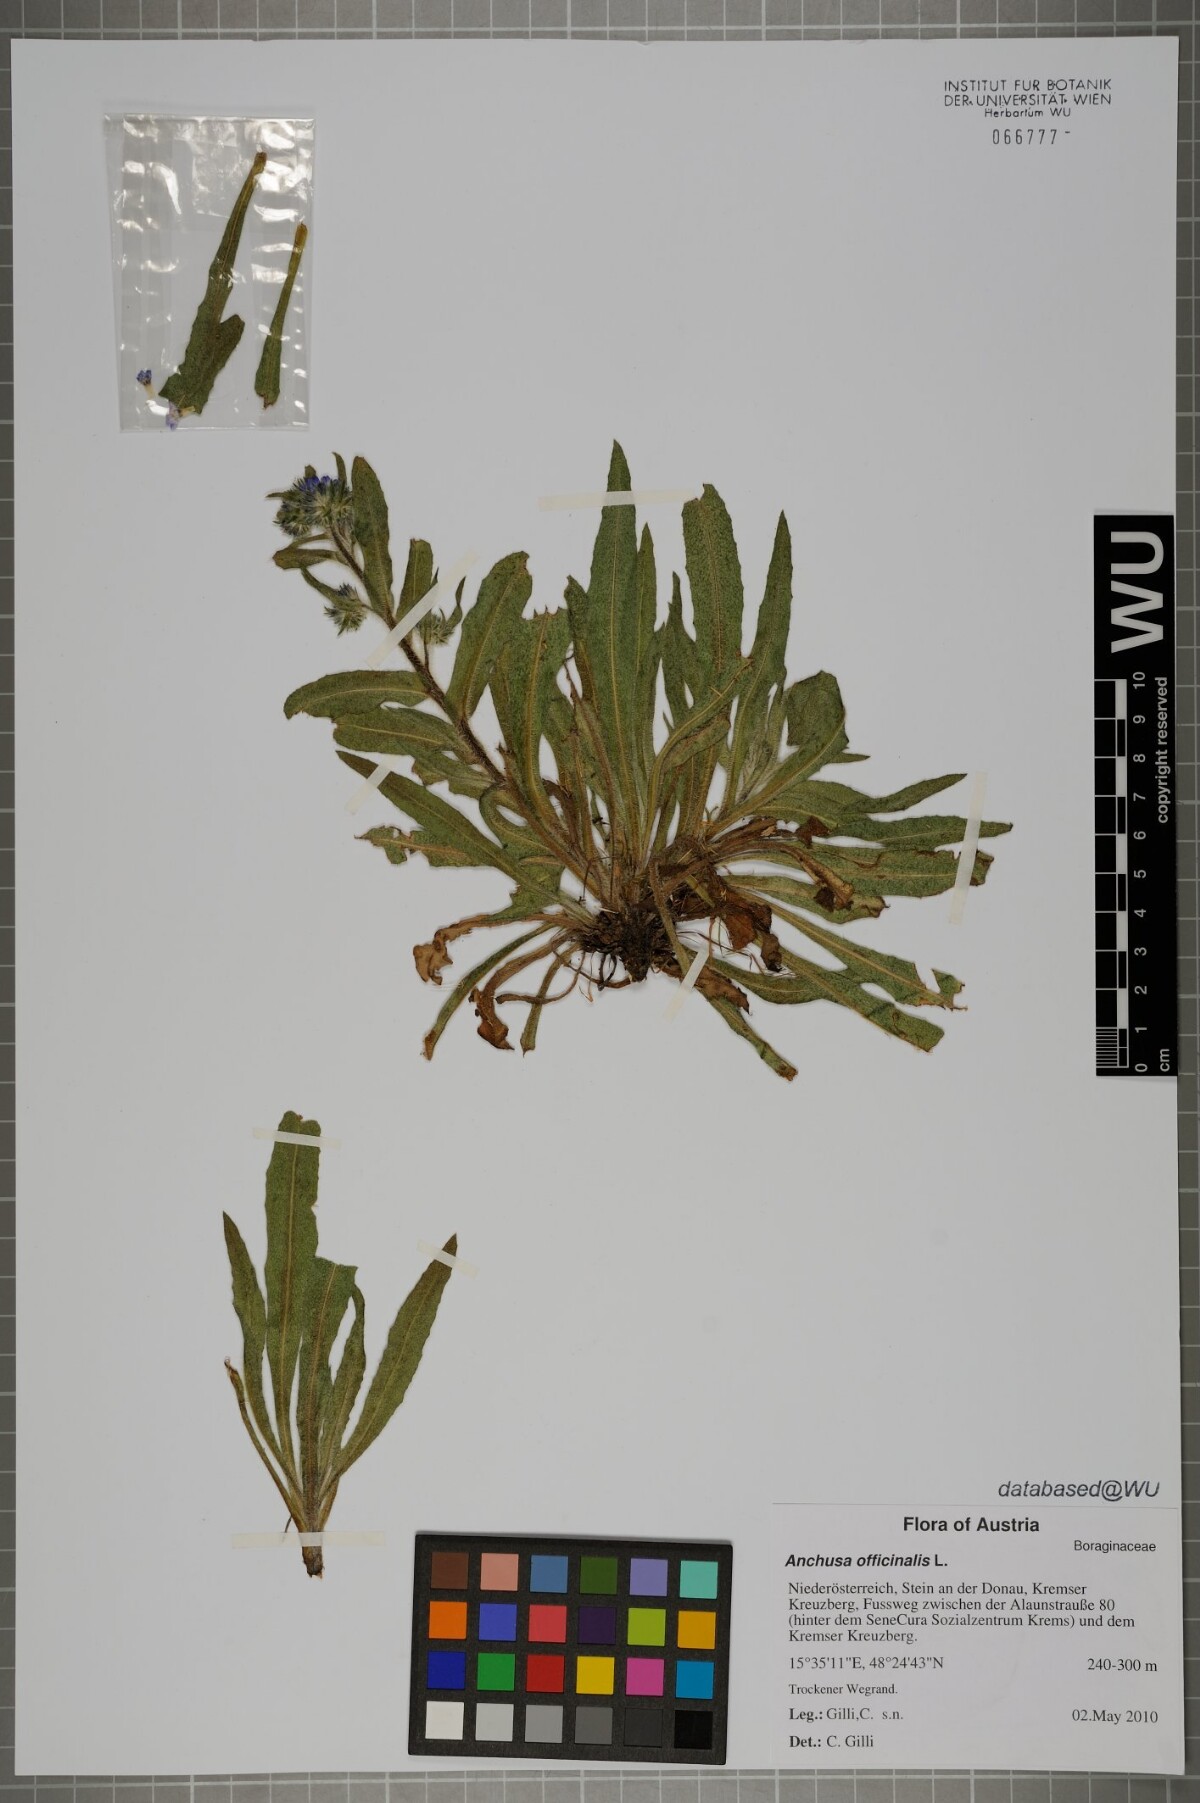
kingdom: Plantae
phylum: Tracheophyta
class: Magnoliopsida
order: Boraginales
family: Boraginaceae
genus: Anchusa
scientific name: Anchusa officinalis
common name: Alkanet
